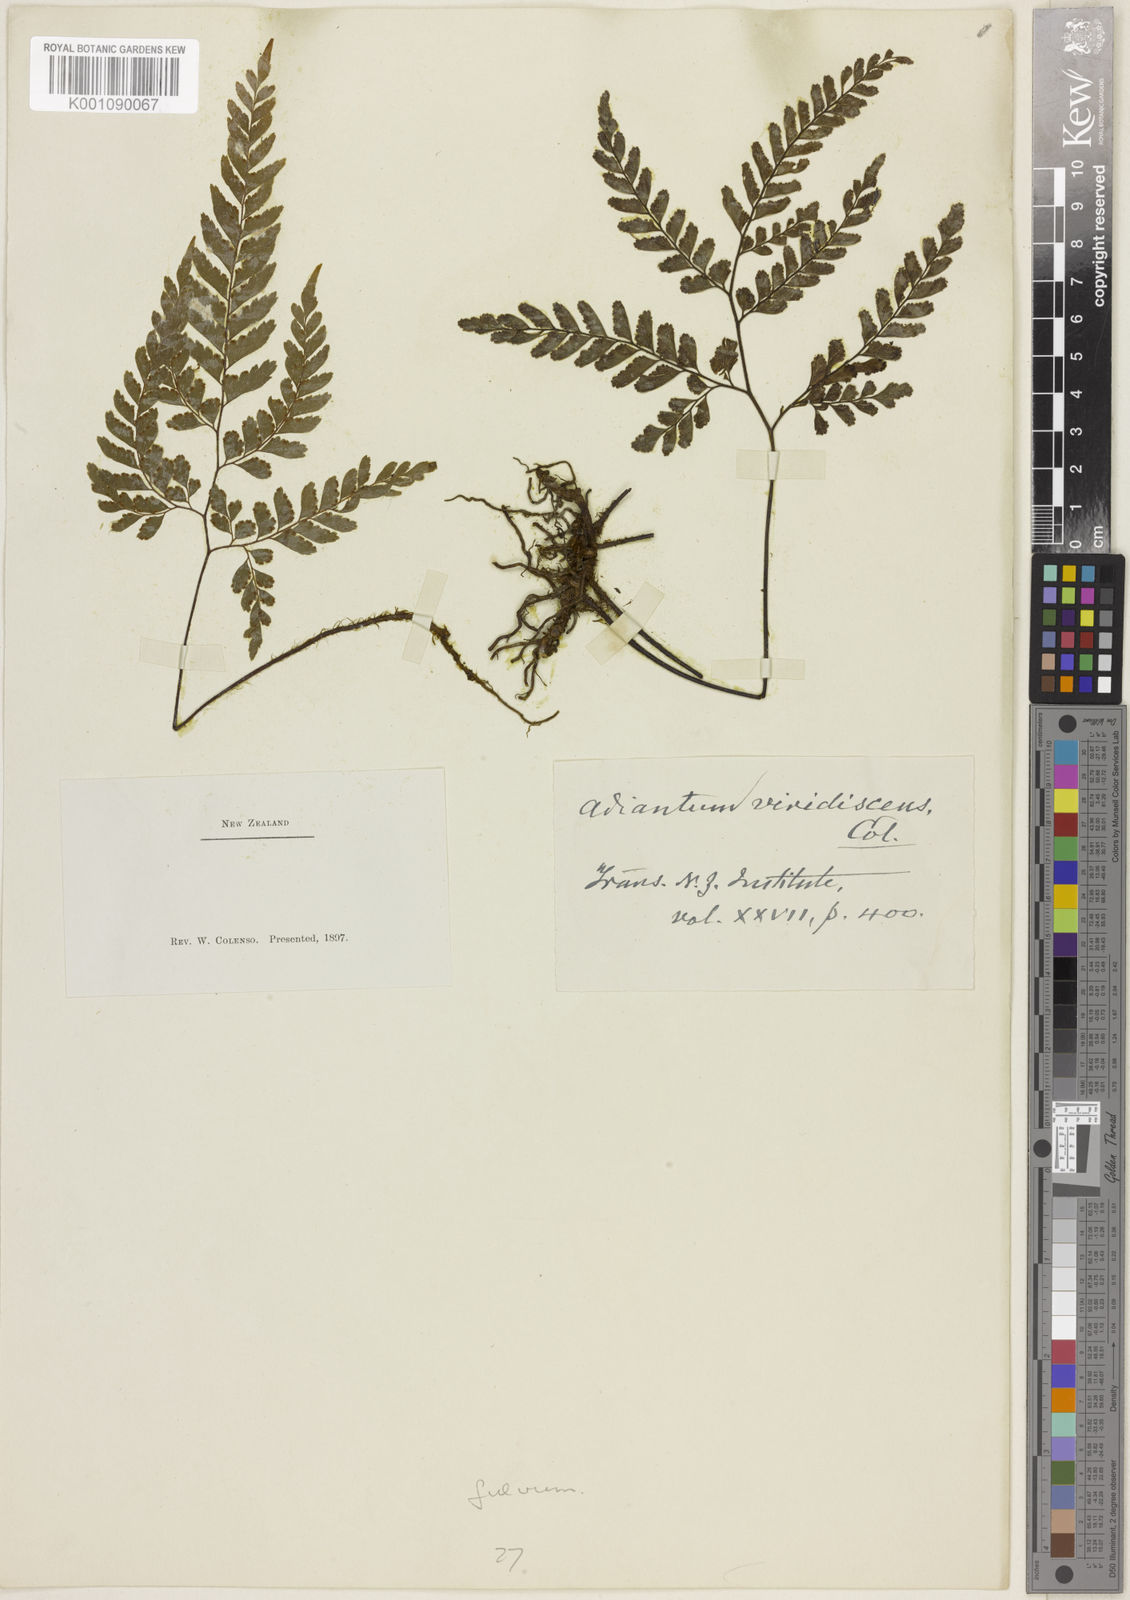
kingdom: Plantae
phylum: Tracheophyta
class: Polypodiopsida
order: Polypodiales
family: Pteridaceae
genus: Adiantum
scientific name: Adiantum fulvum
